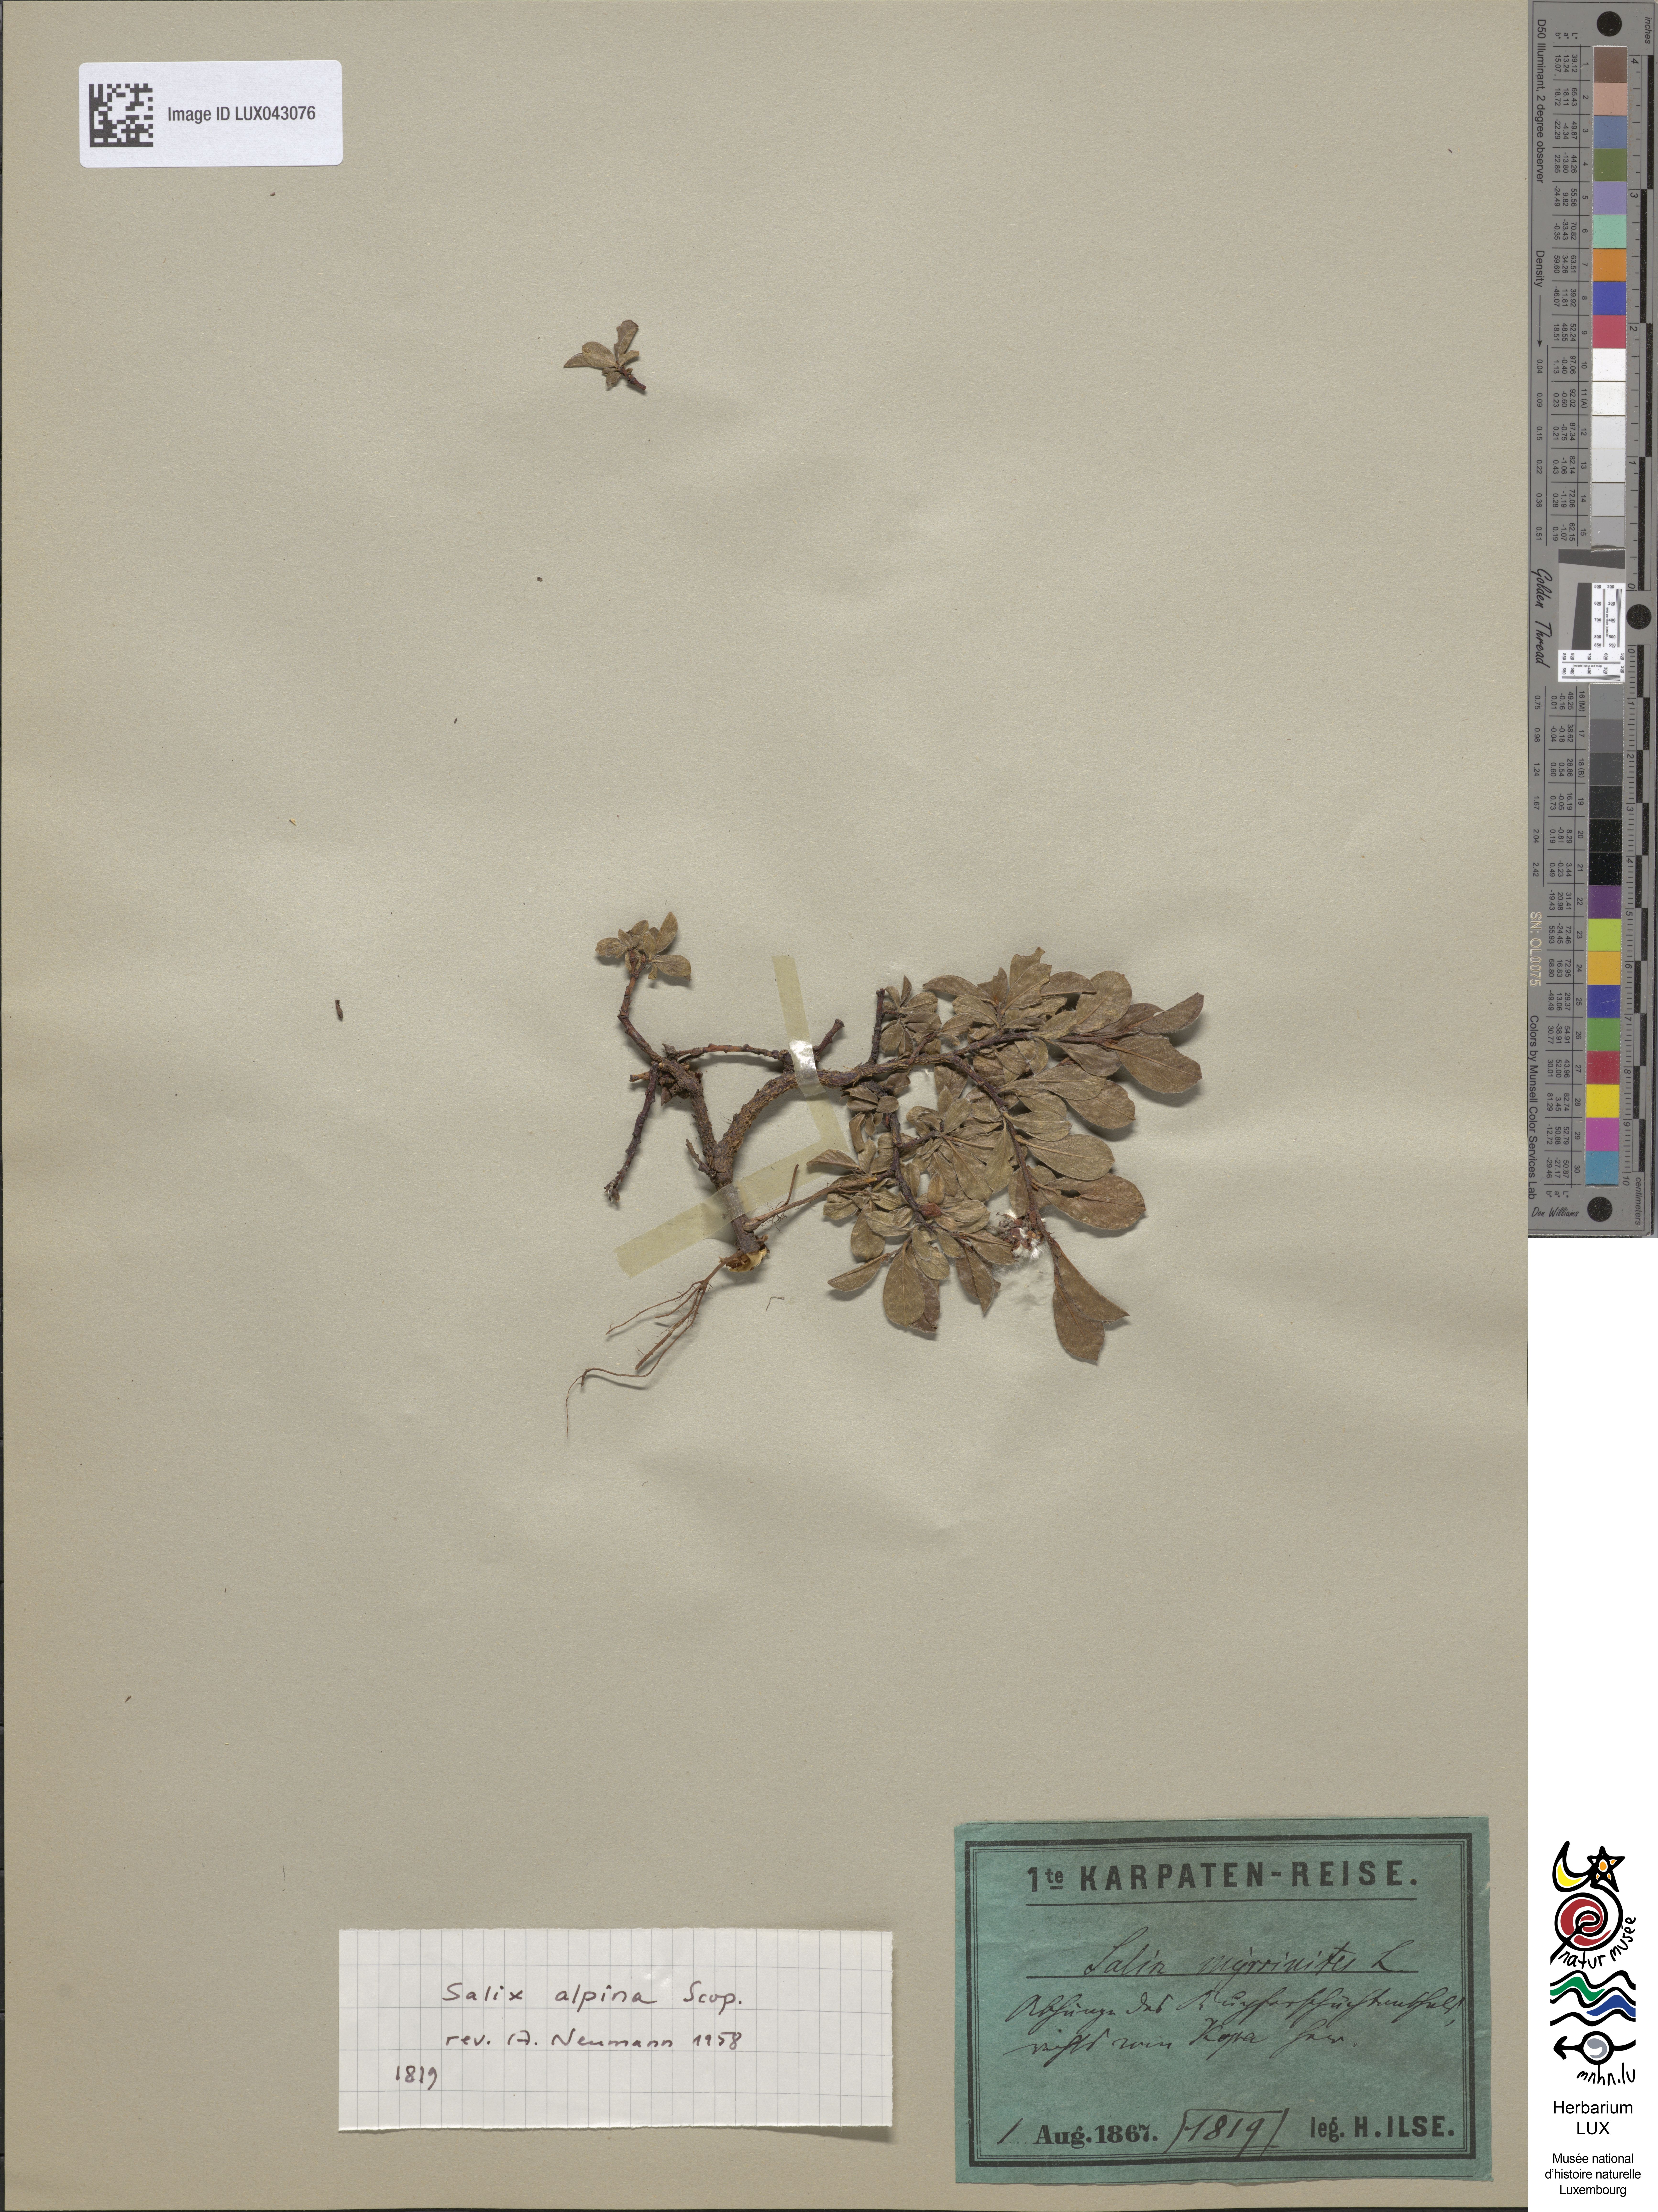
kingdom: Plantae
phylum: Tracheophyta
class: Magnoliopsida
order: Malpighiales
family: Salicaceae
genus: Salix
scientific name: Salix alpina
